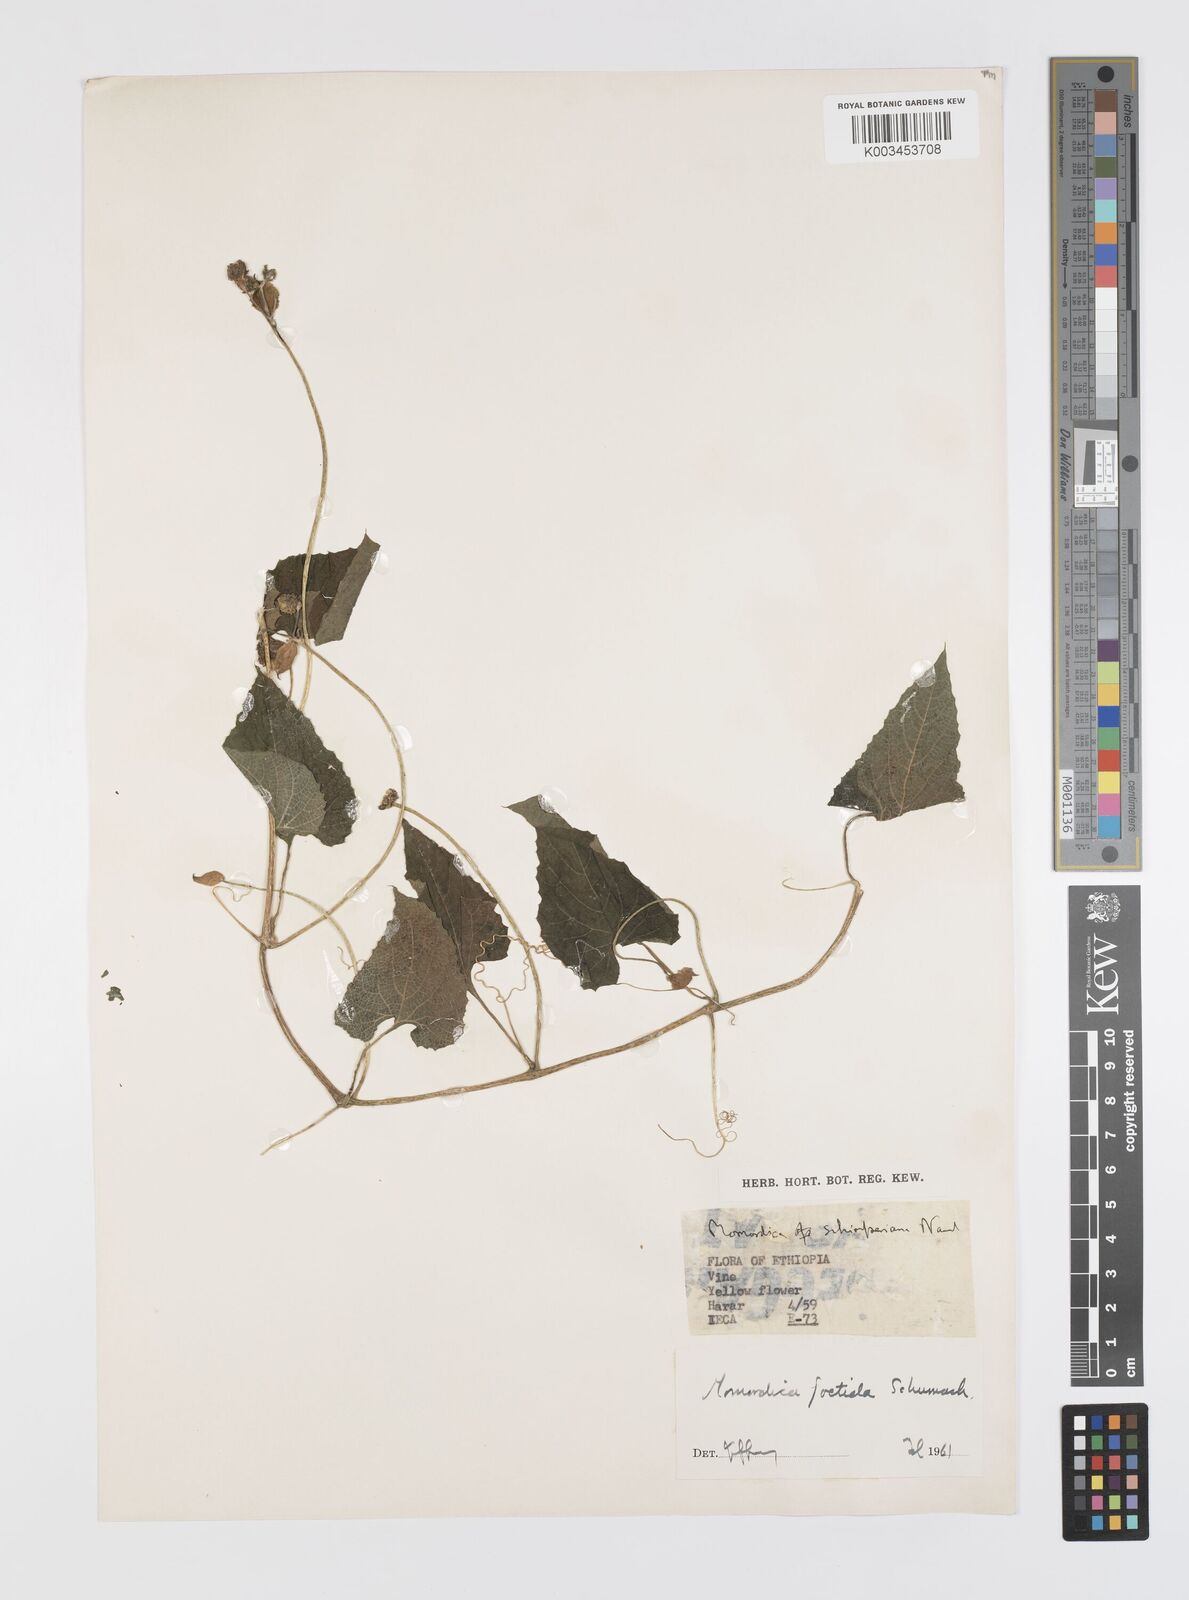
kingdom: Plantae
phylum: Tracheophyta
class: Magnoliopsida
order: Cucurbitales
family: Cucurbitaceae
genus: Momordica
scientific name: Momordica foetida
